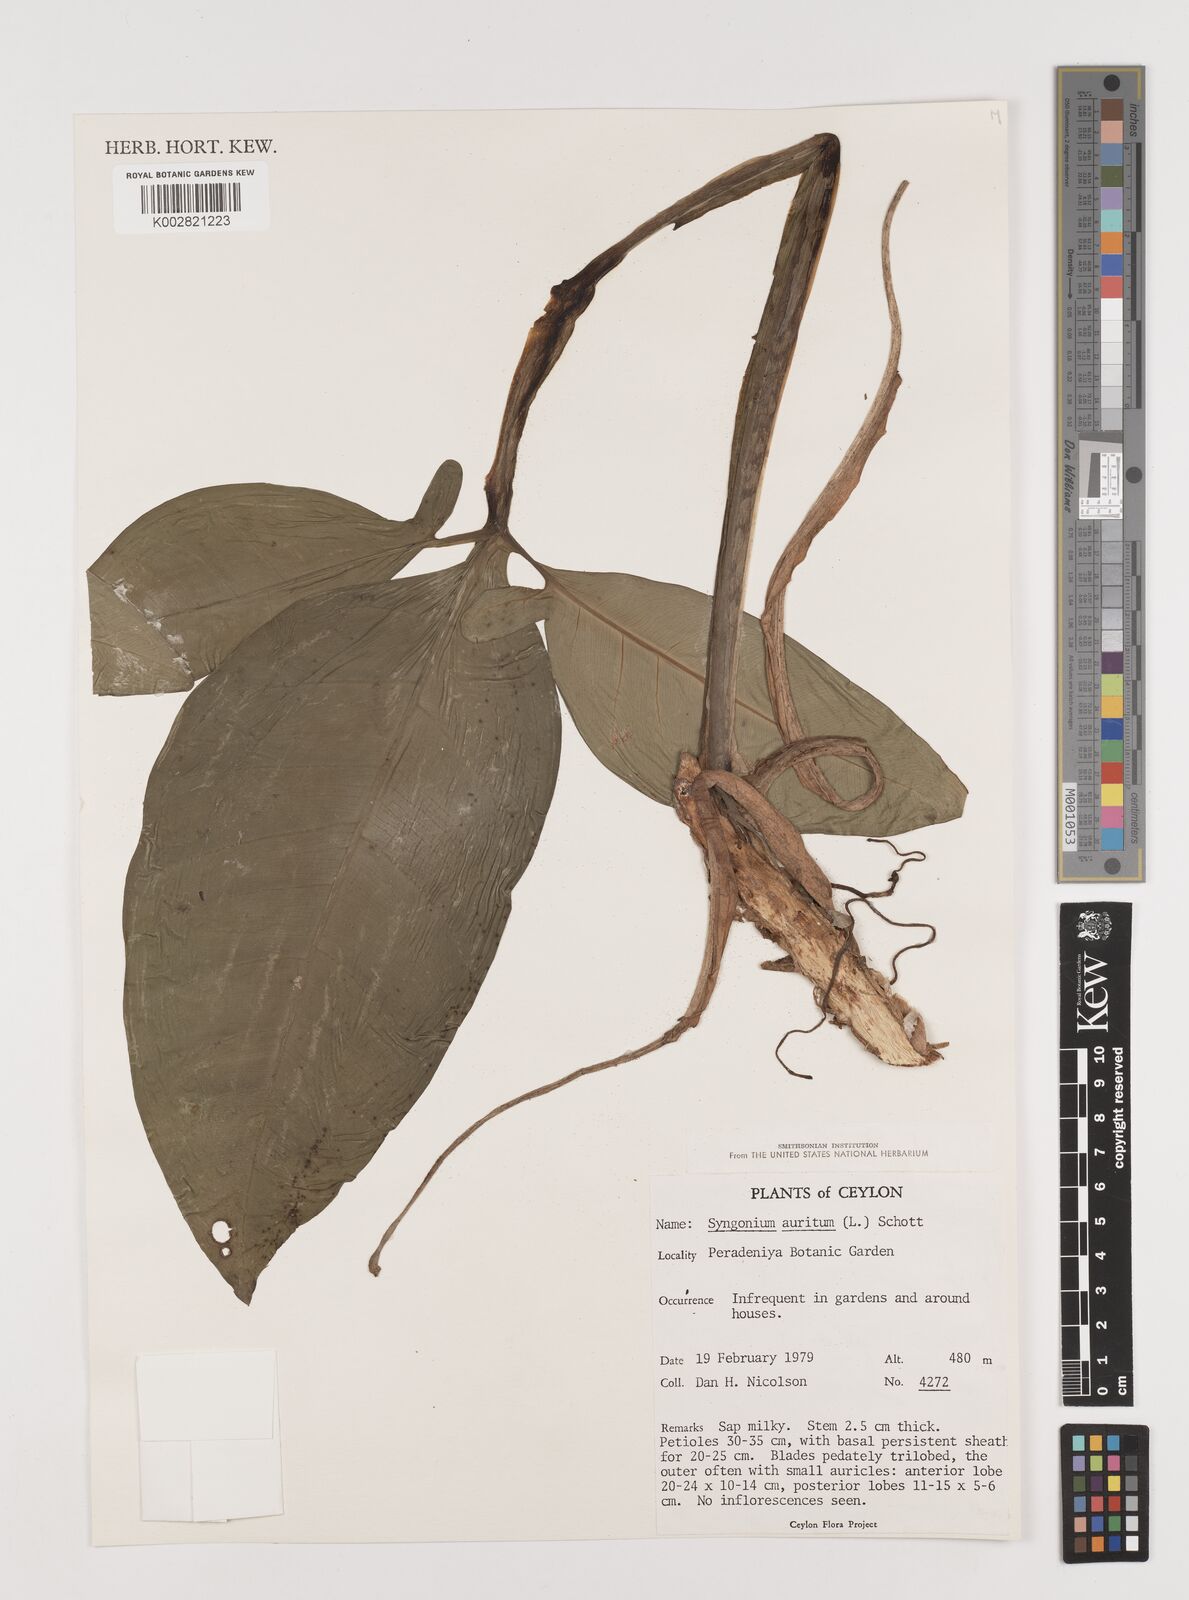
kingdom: Plantae
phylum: Tracheophyta
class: Liliopsida
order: Alismatales
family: Araceae
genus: Syngonium
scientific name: Syngonium auritum
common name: Five-fingers
